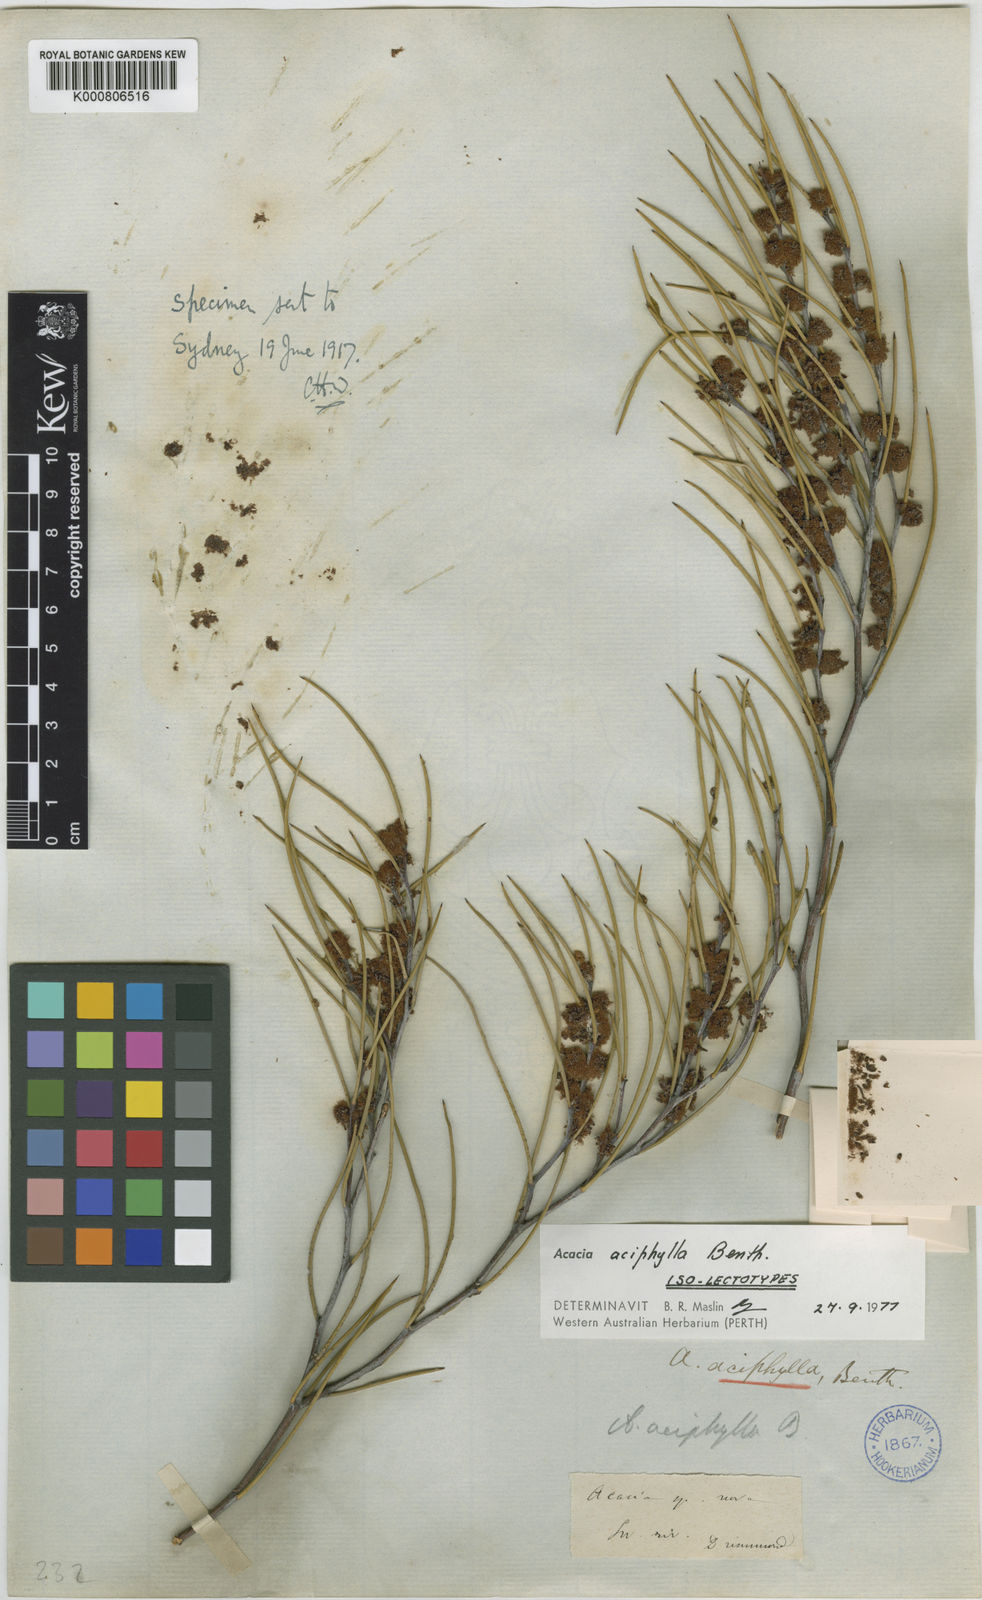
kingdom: Plantae
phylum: Tracheophyta
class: Magnoliopsida
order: Fabales
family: Fabaceae
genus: Acacia
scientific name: Acacia aciphylla
